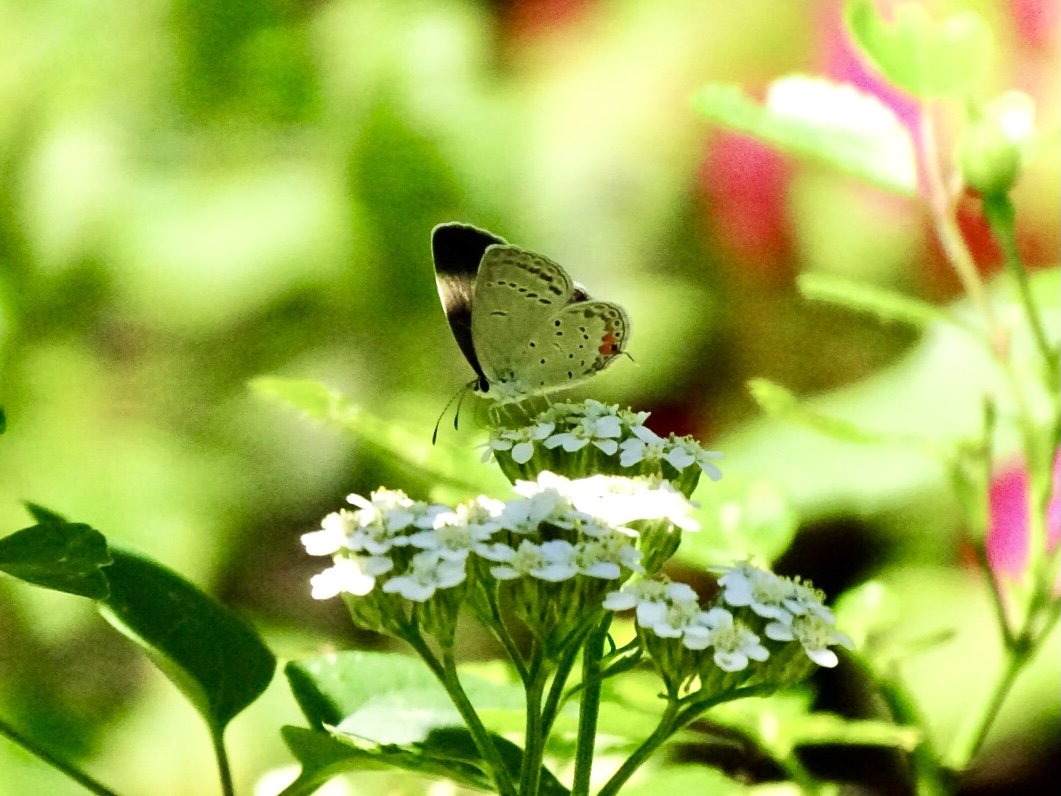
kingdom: Animalia
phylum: Arthropoda
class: Insecta
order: Lepidoptera
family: Lycaenidae
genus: Elkalyce
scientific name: Elkalyce comyntas
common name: Eastern Tailed-Blue
